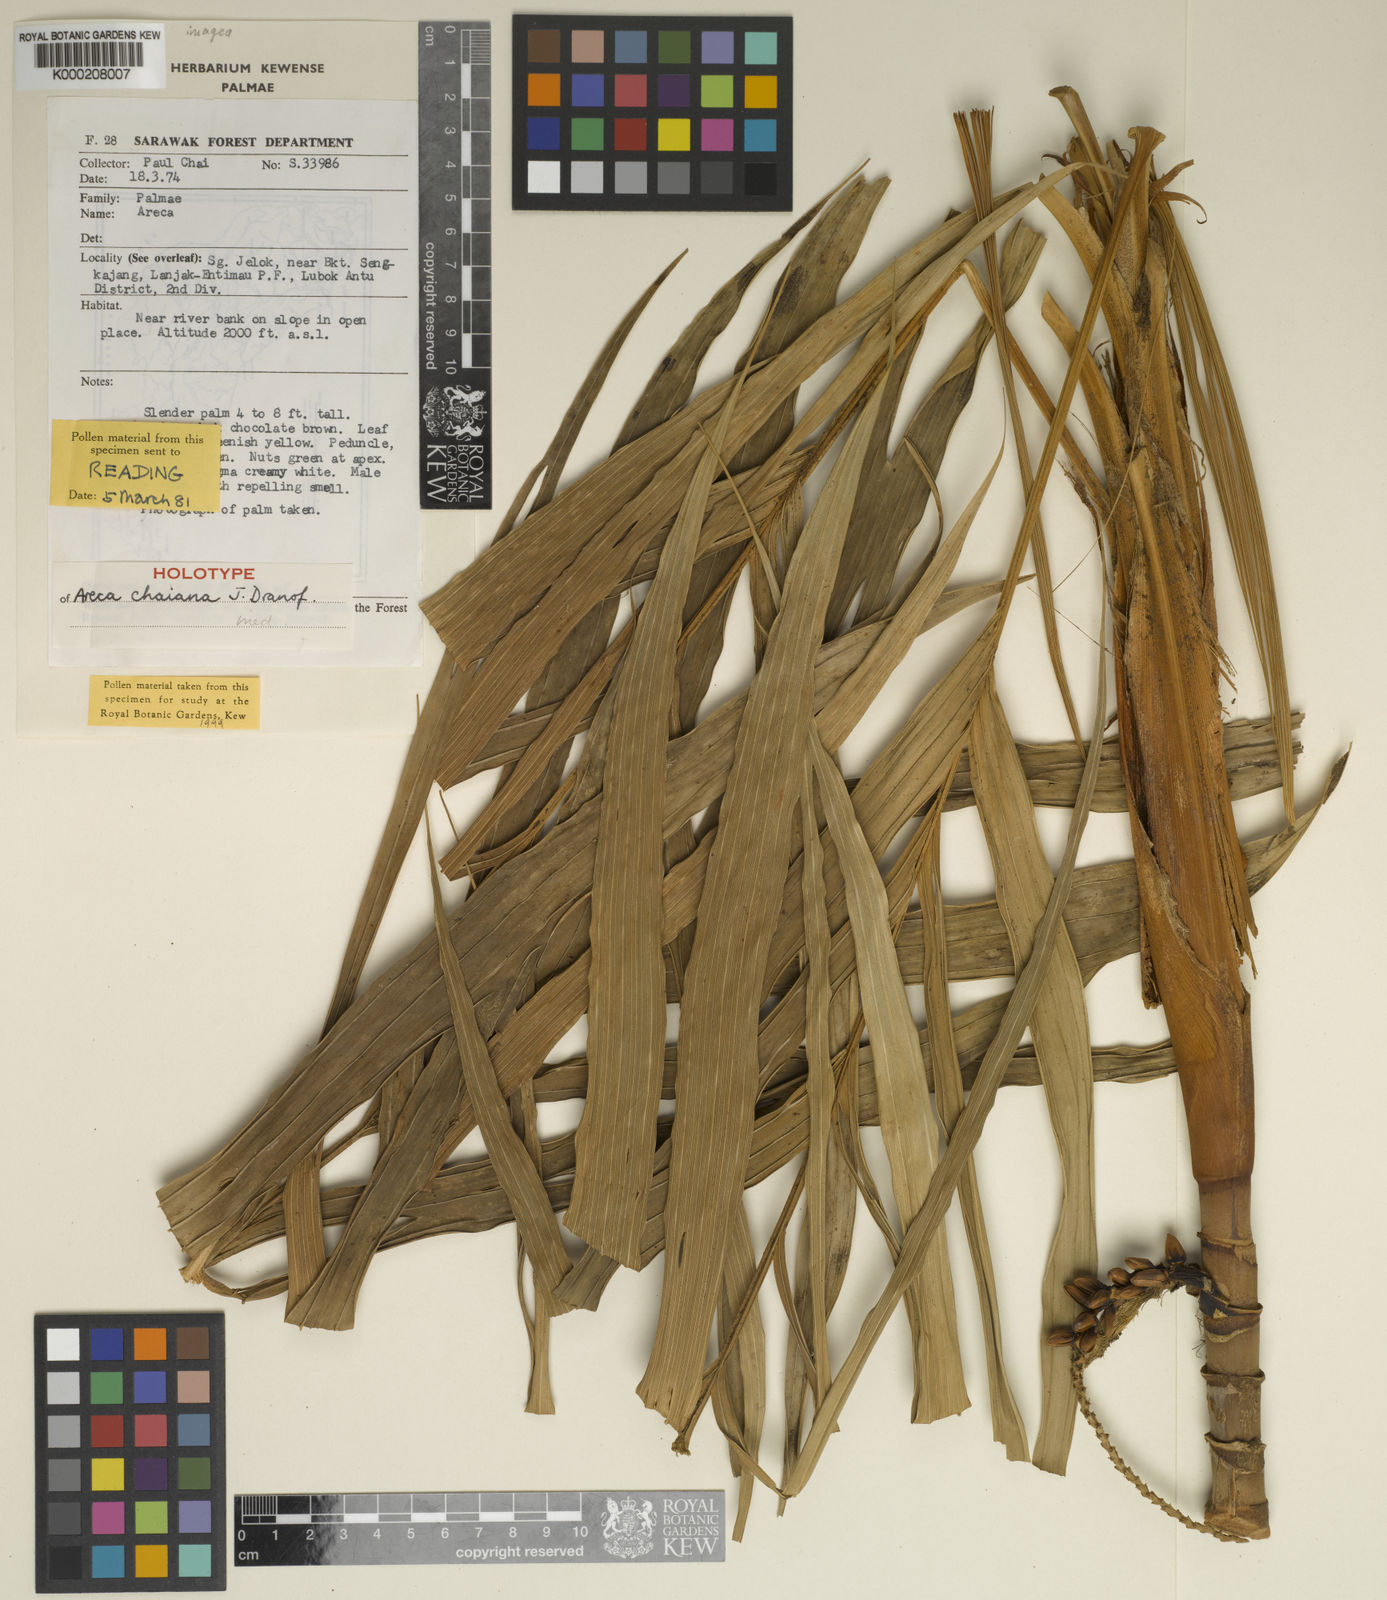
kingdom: Plantae
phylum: Tracheophyta
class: Liliopsida
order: Arecales
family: Arecaceae
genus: Areca
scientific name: Areca chaiana
